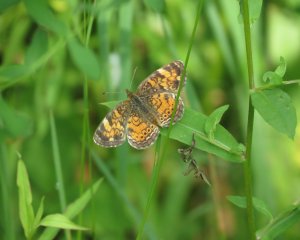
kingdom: Animalia
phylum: Arthropoda
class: Insecta
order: Lepidoptera
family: Nymphalidae
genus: Phyciodes
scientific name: Phyciodes tharos
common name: Northern Crescent
